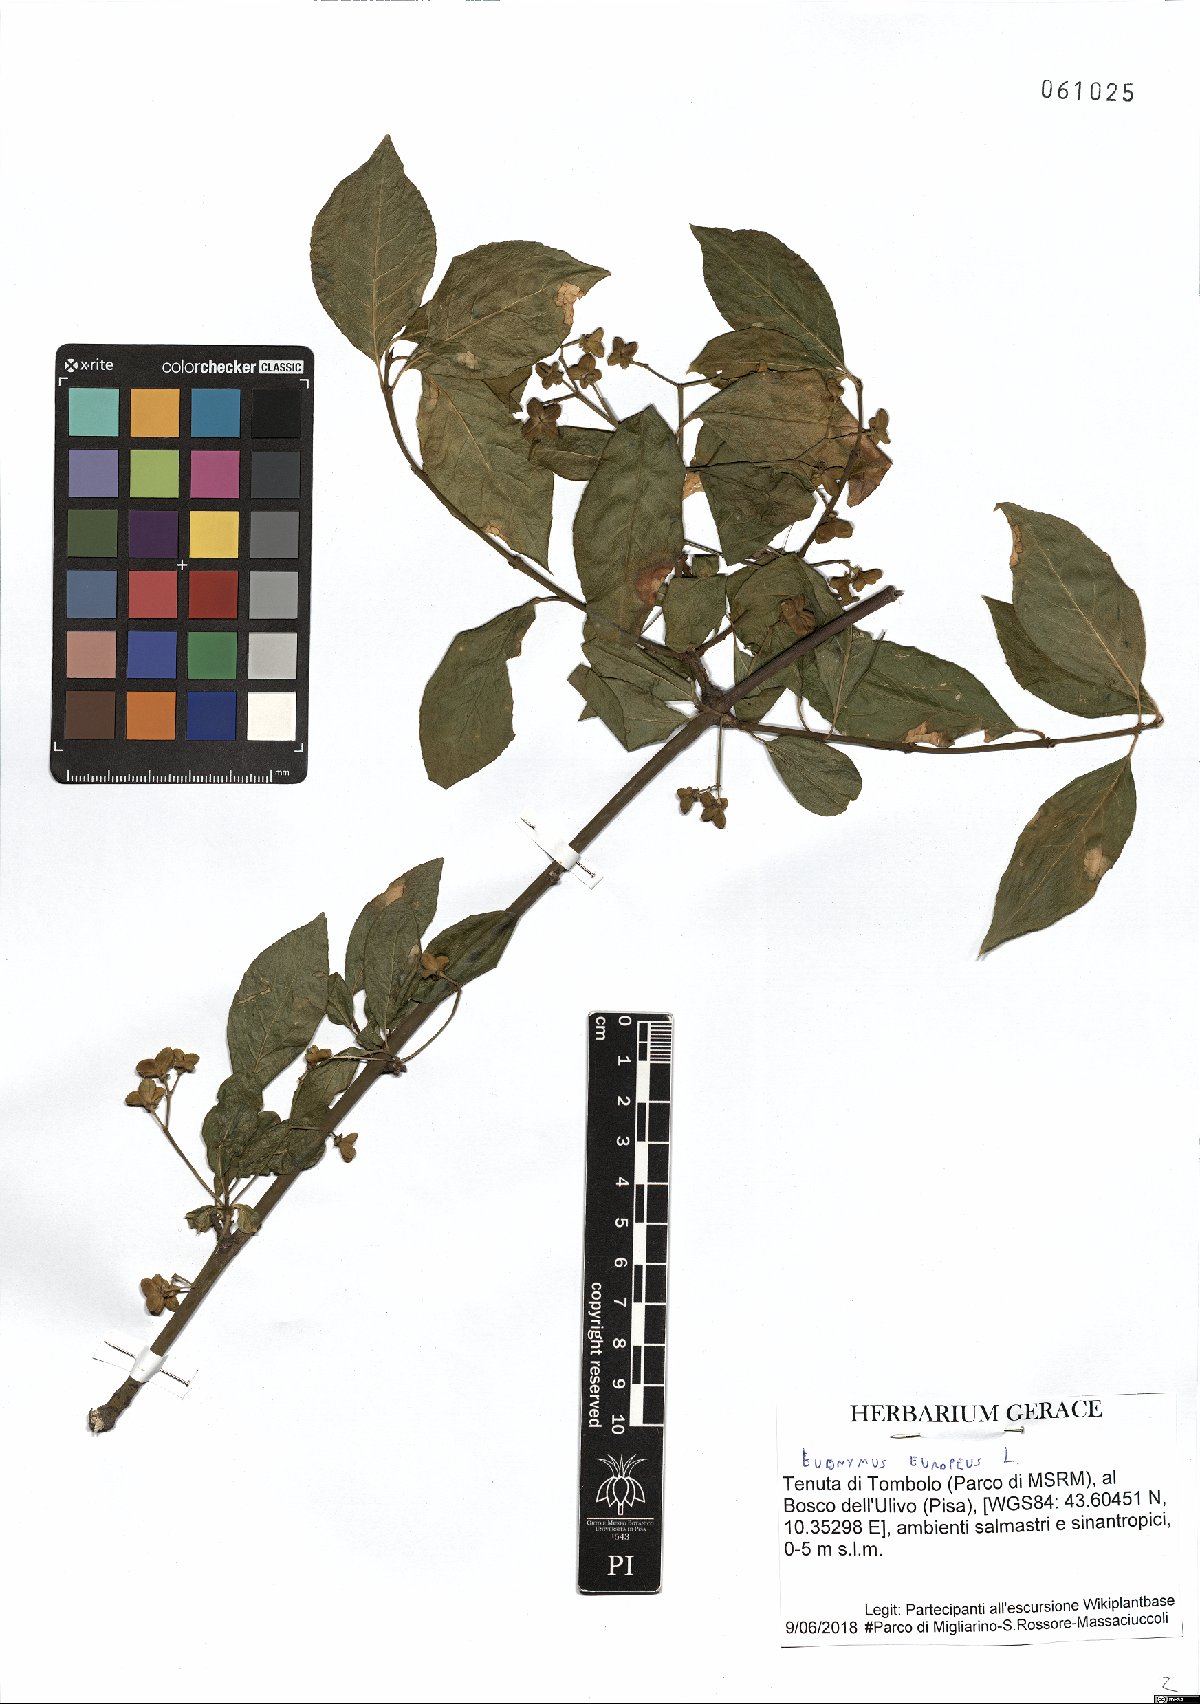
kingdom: Plantae
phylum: Tracheophyta
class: Magnoliopsida
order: Celastrales
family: Celastraceae
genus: Euonymus
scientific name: Euonymus europaeus
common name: Spindle
